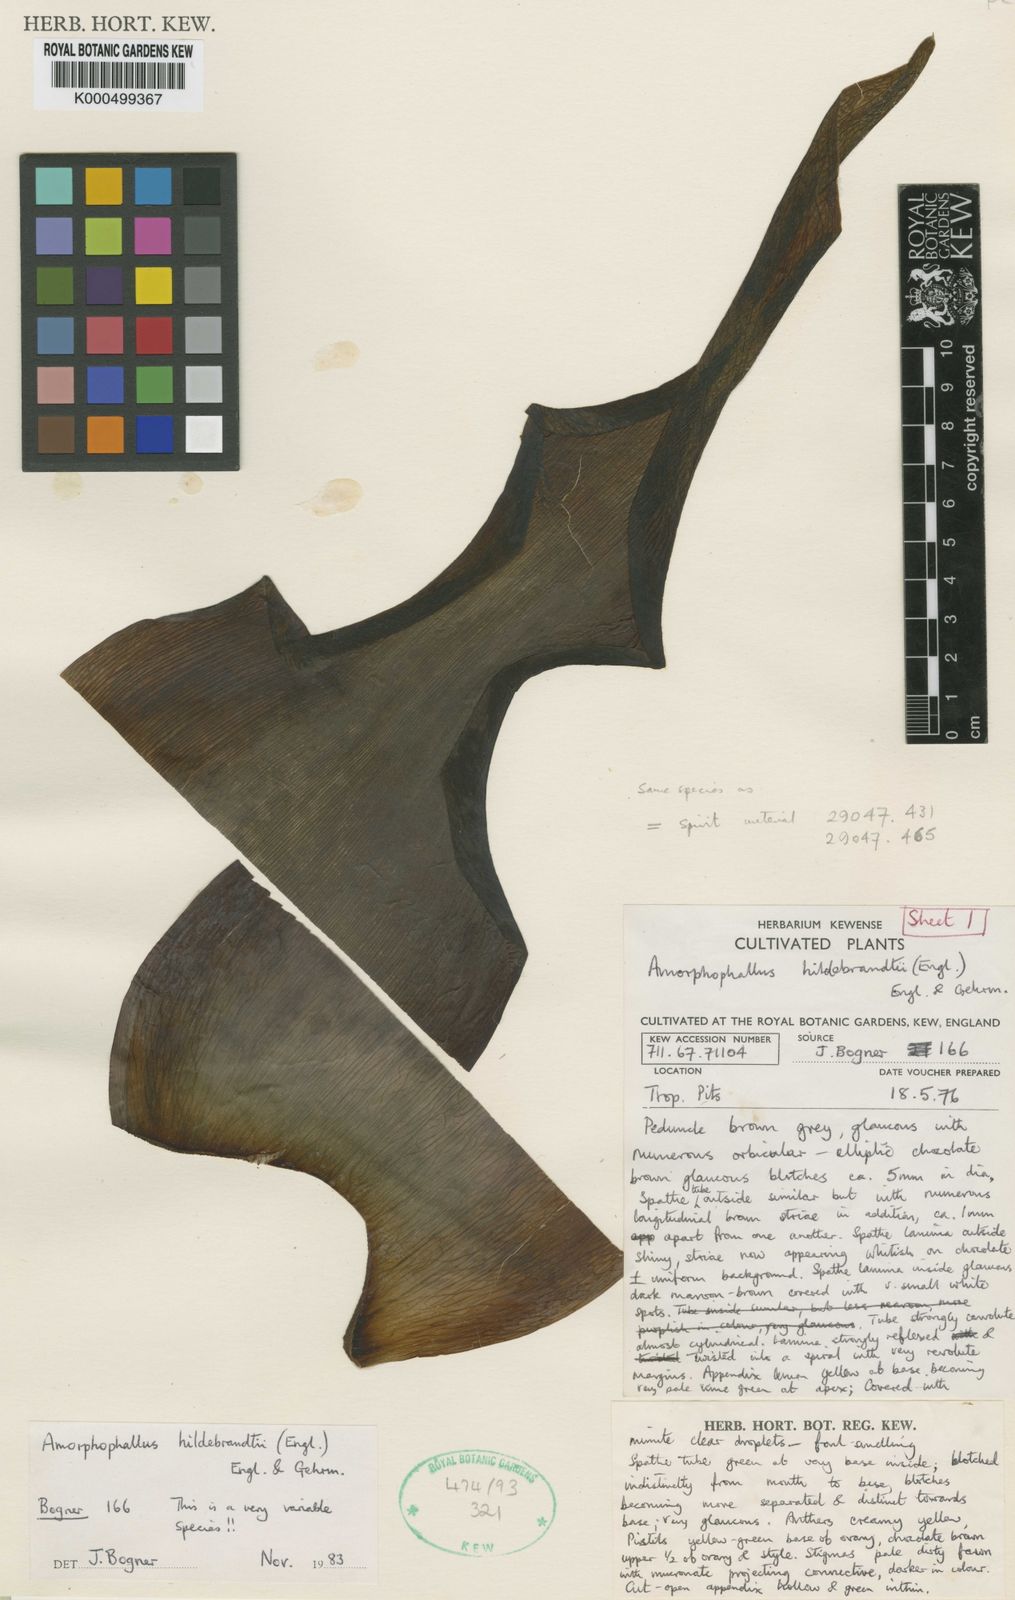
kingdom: Plantae
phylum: Tracheophyta
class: Liliopsida
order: Alismatales
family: Araceae
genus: Amorphophallus
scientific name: Amorphophallus hildebrandtii
